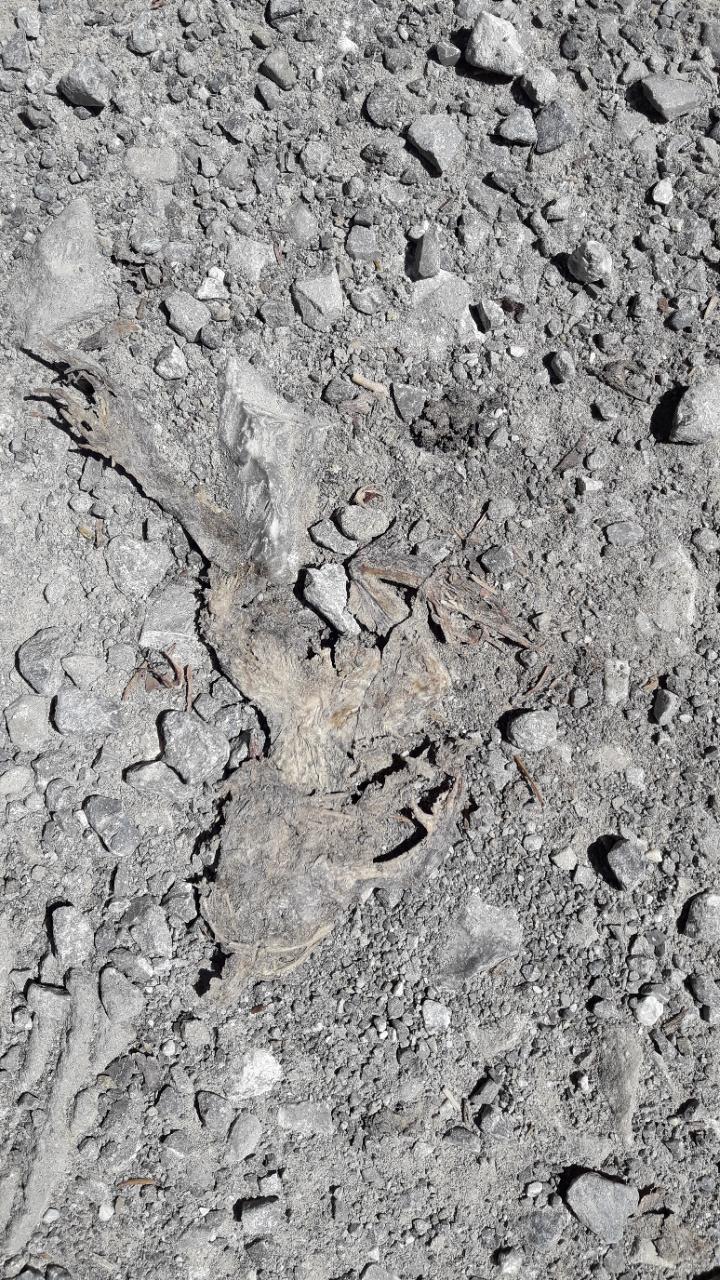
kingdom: Animalia
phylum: Chordata
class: Amphibia
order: Anura
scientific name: Anura
